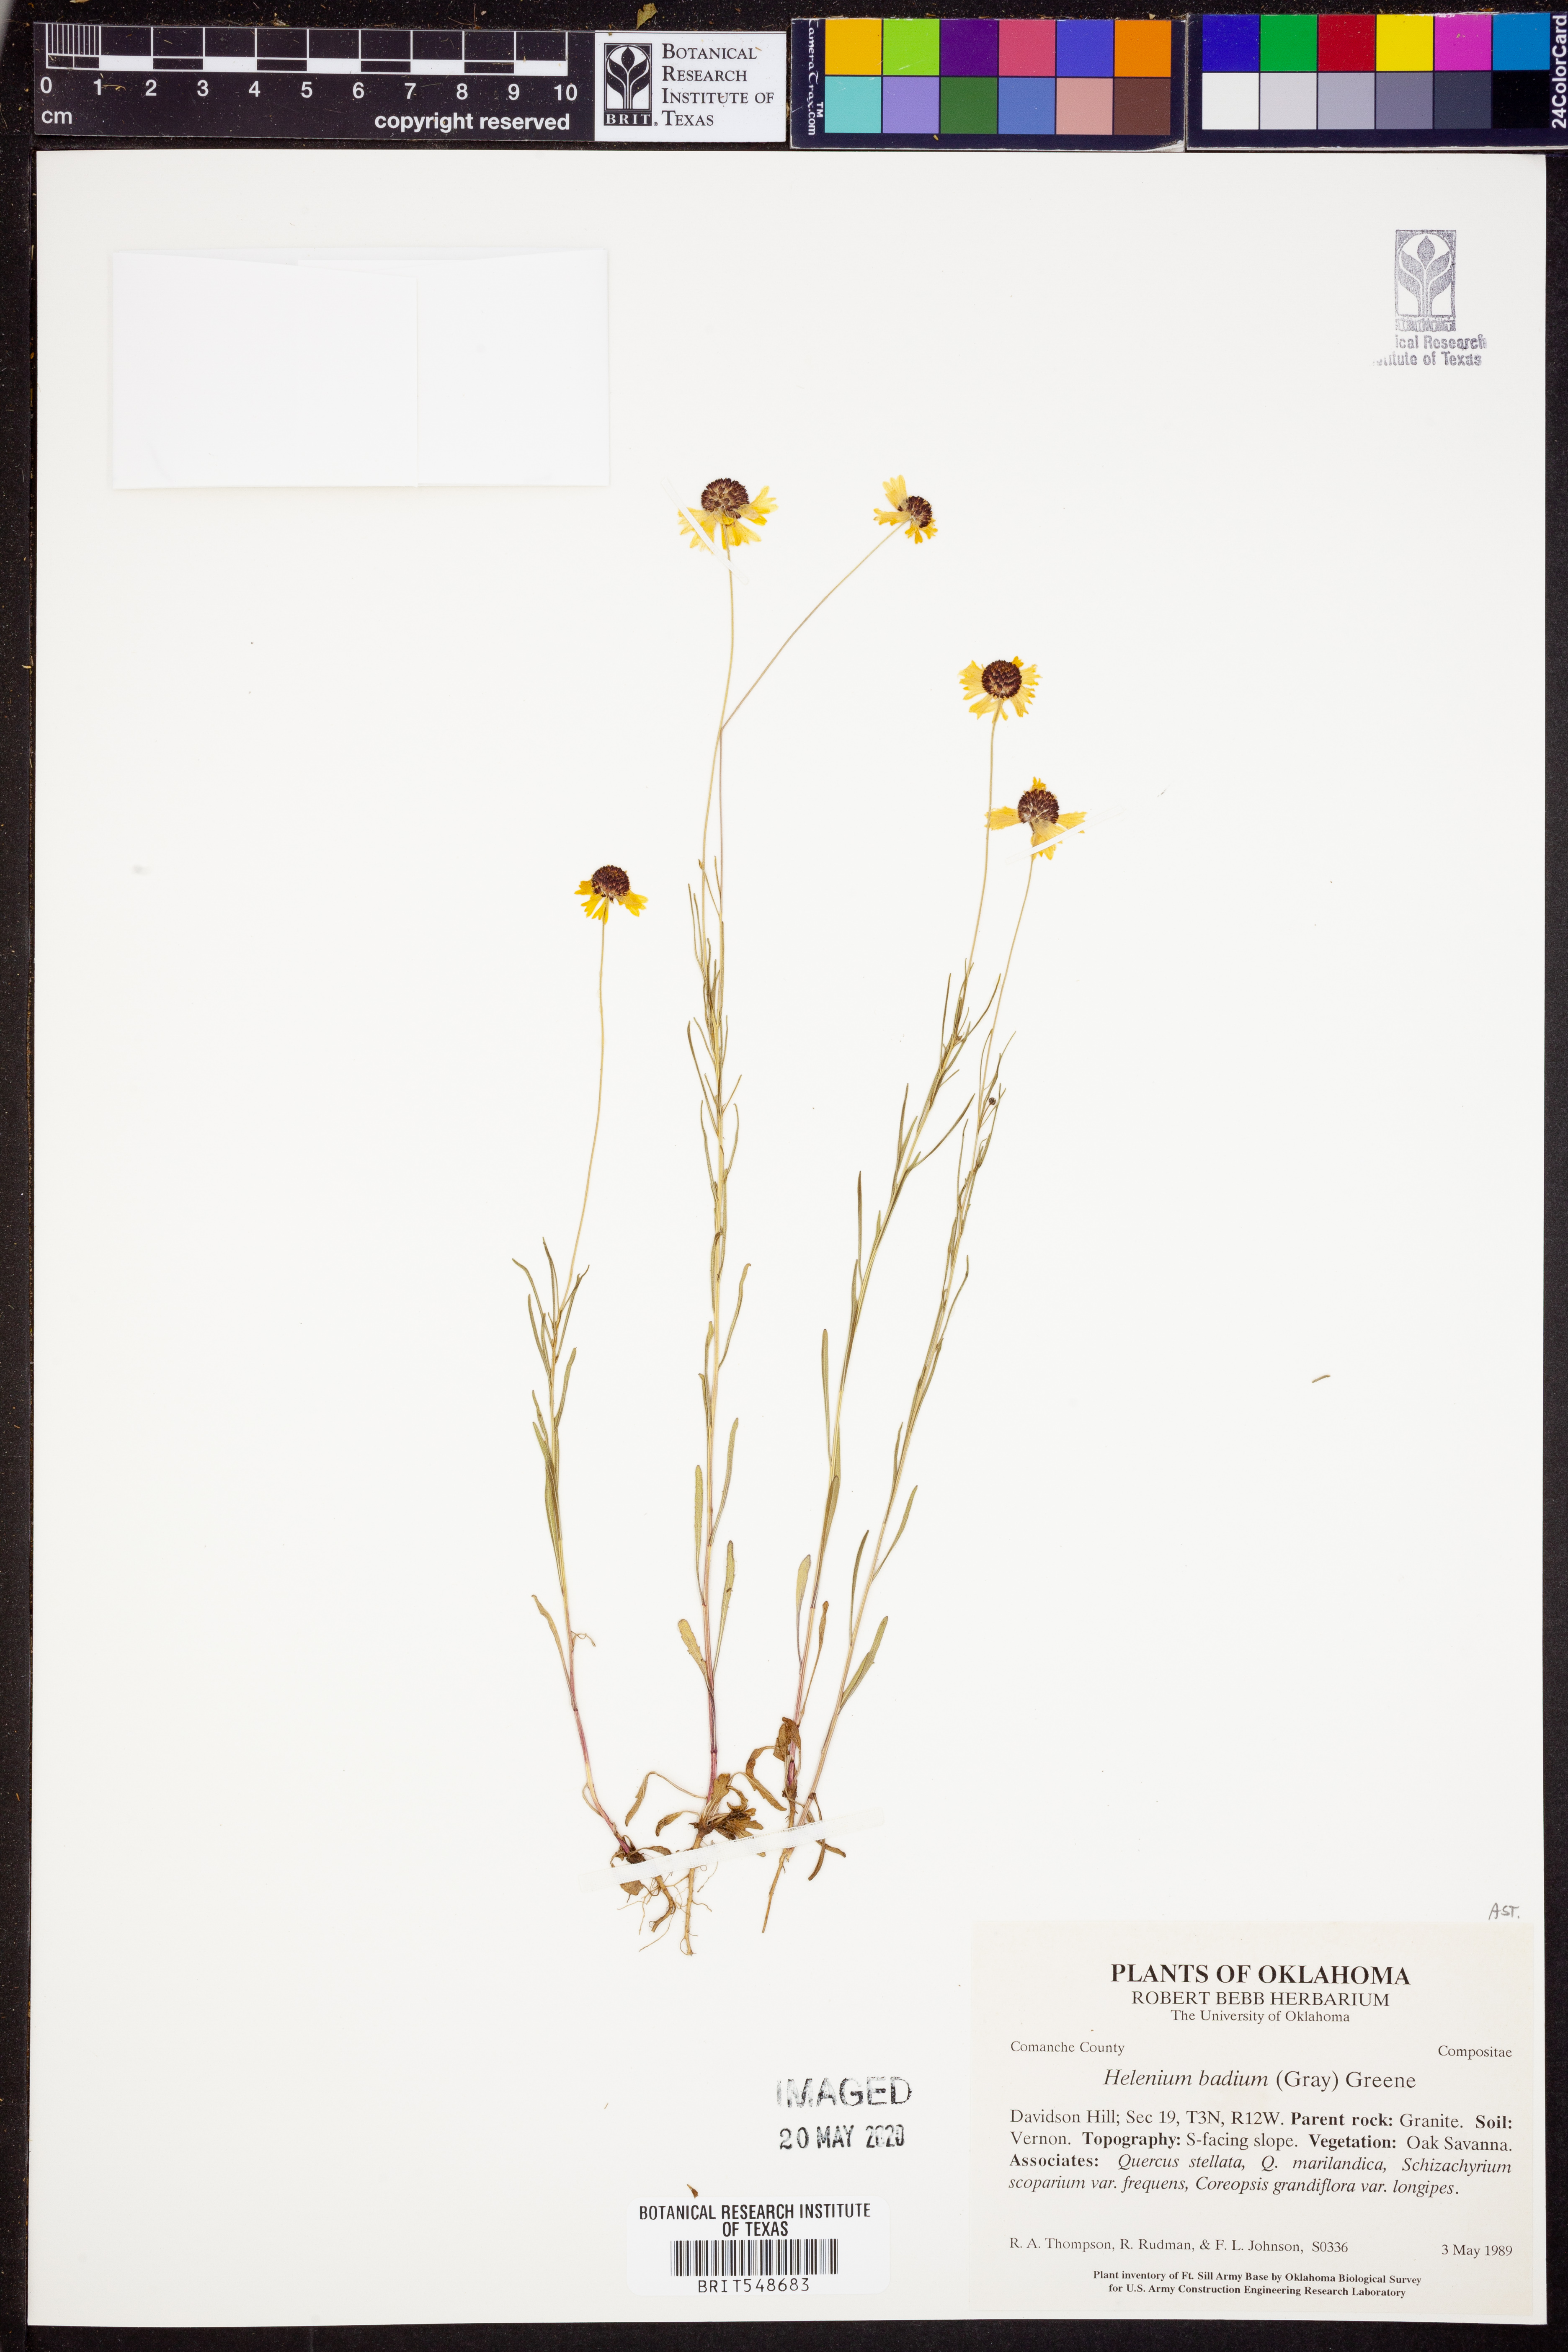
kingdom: Plantae
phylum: Tracheophyta
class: Magnoliopsida
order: Asterales
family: Asteraceae
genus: Helenium
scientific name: Helenium amarum
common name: Bitter sneezeweed
